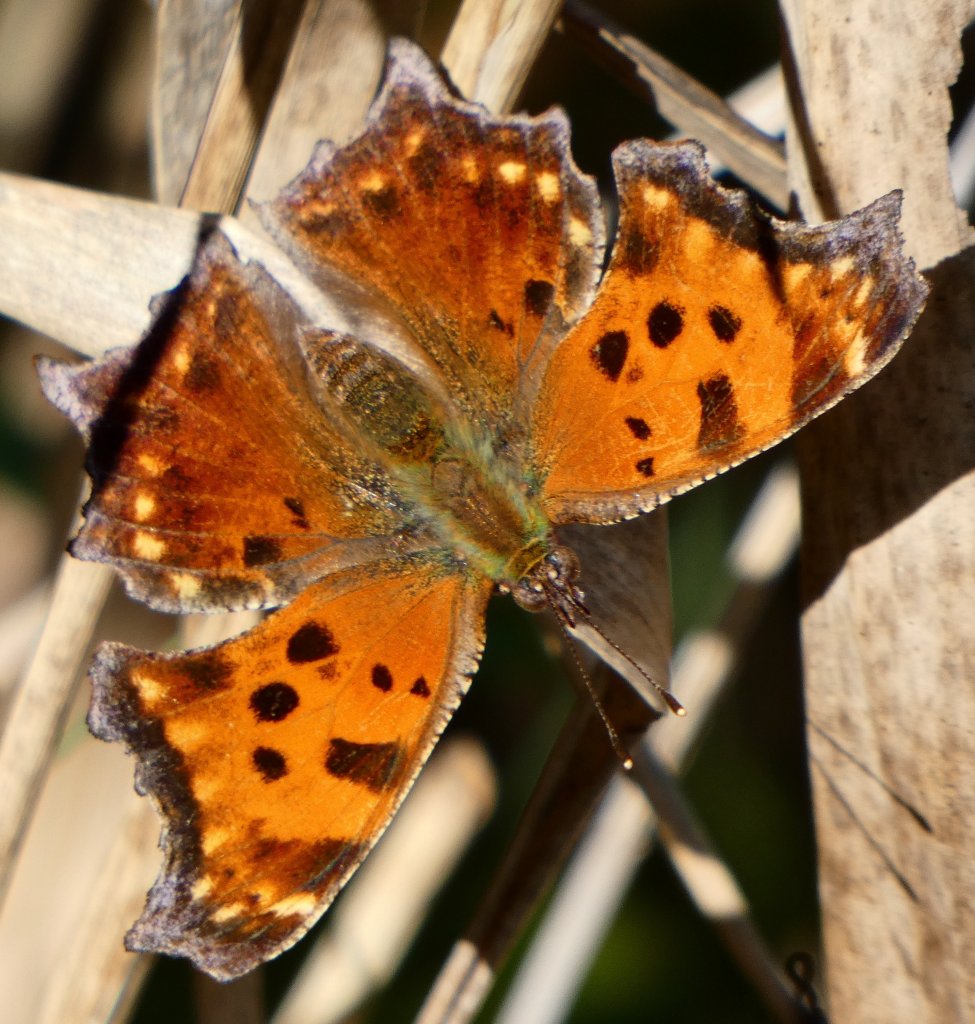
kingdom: Animalia
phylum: Arthropoda
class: Insecta
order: Lepidoptera
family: Nymphalidae
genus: Polygonia
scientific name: Polygonia comma
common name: Eastern Comma
